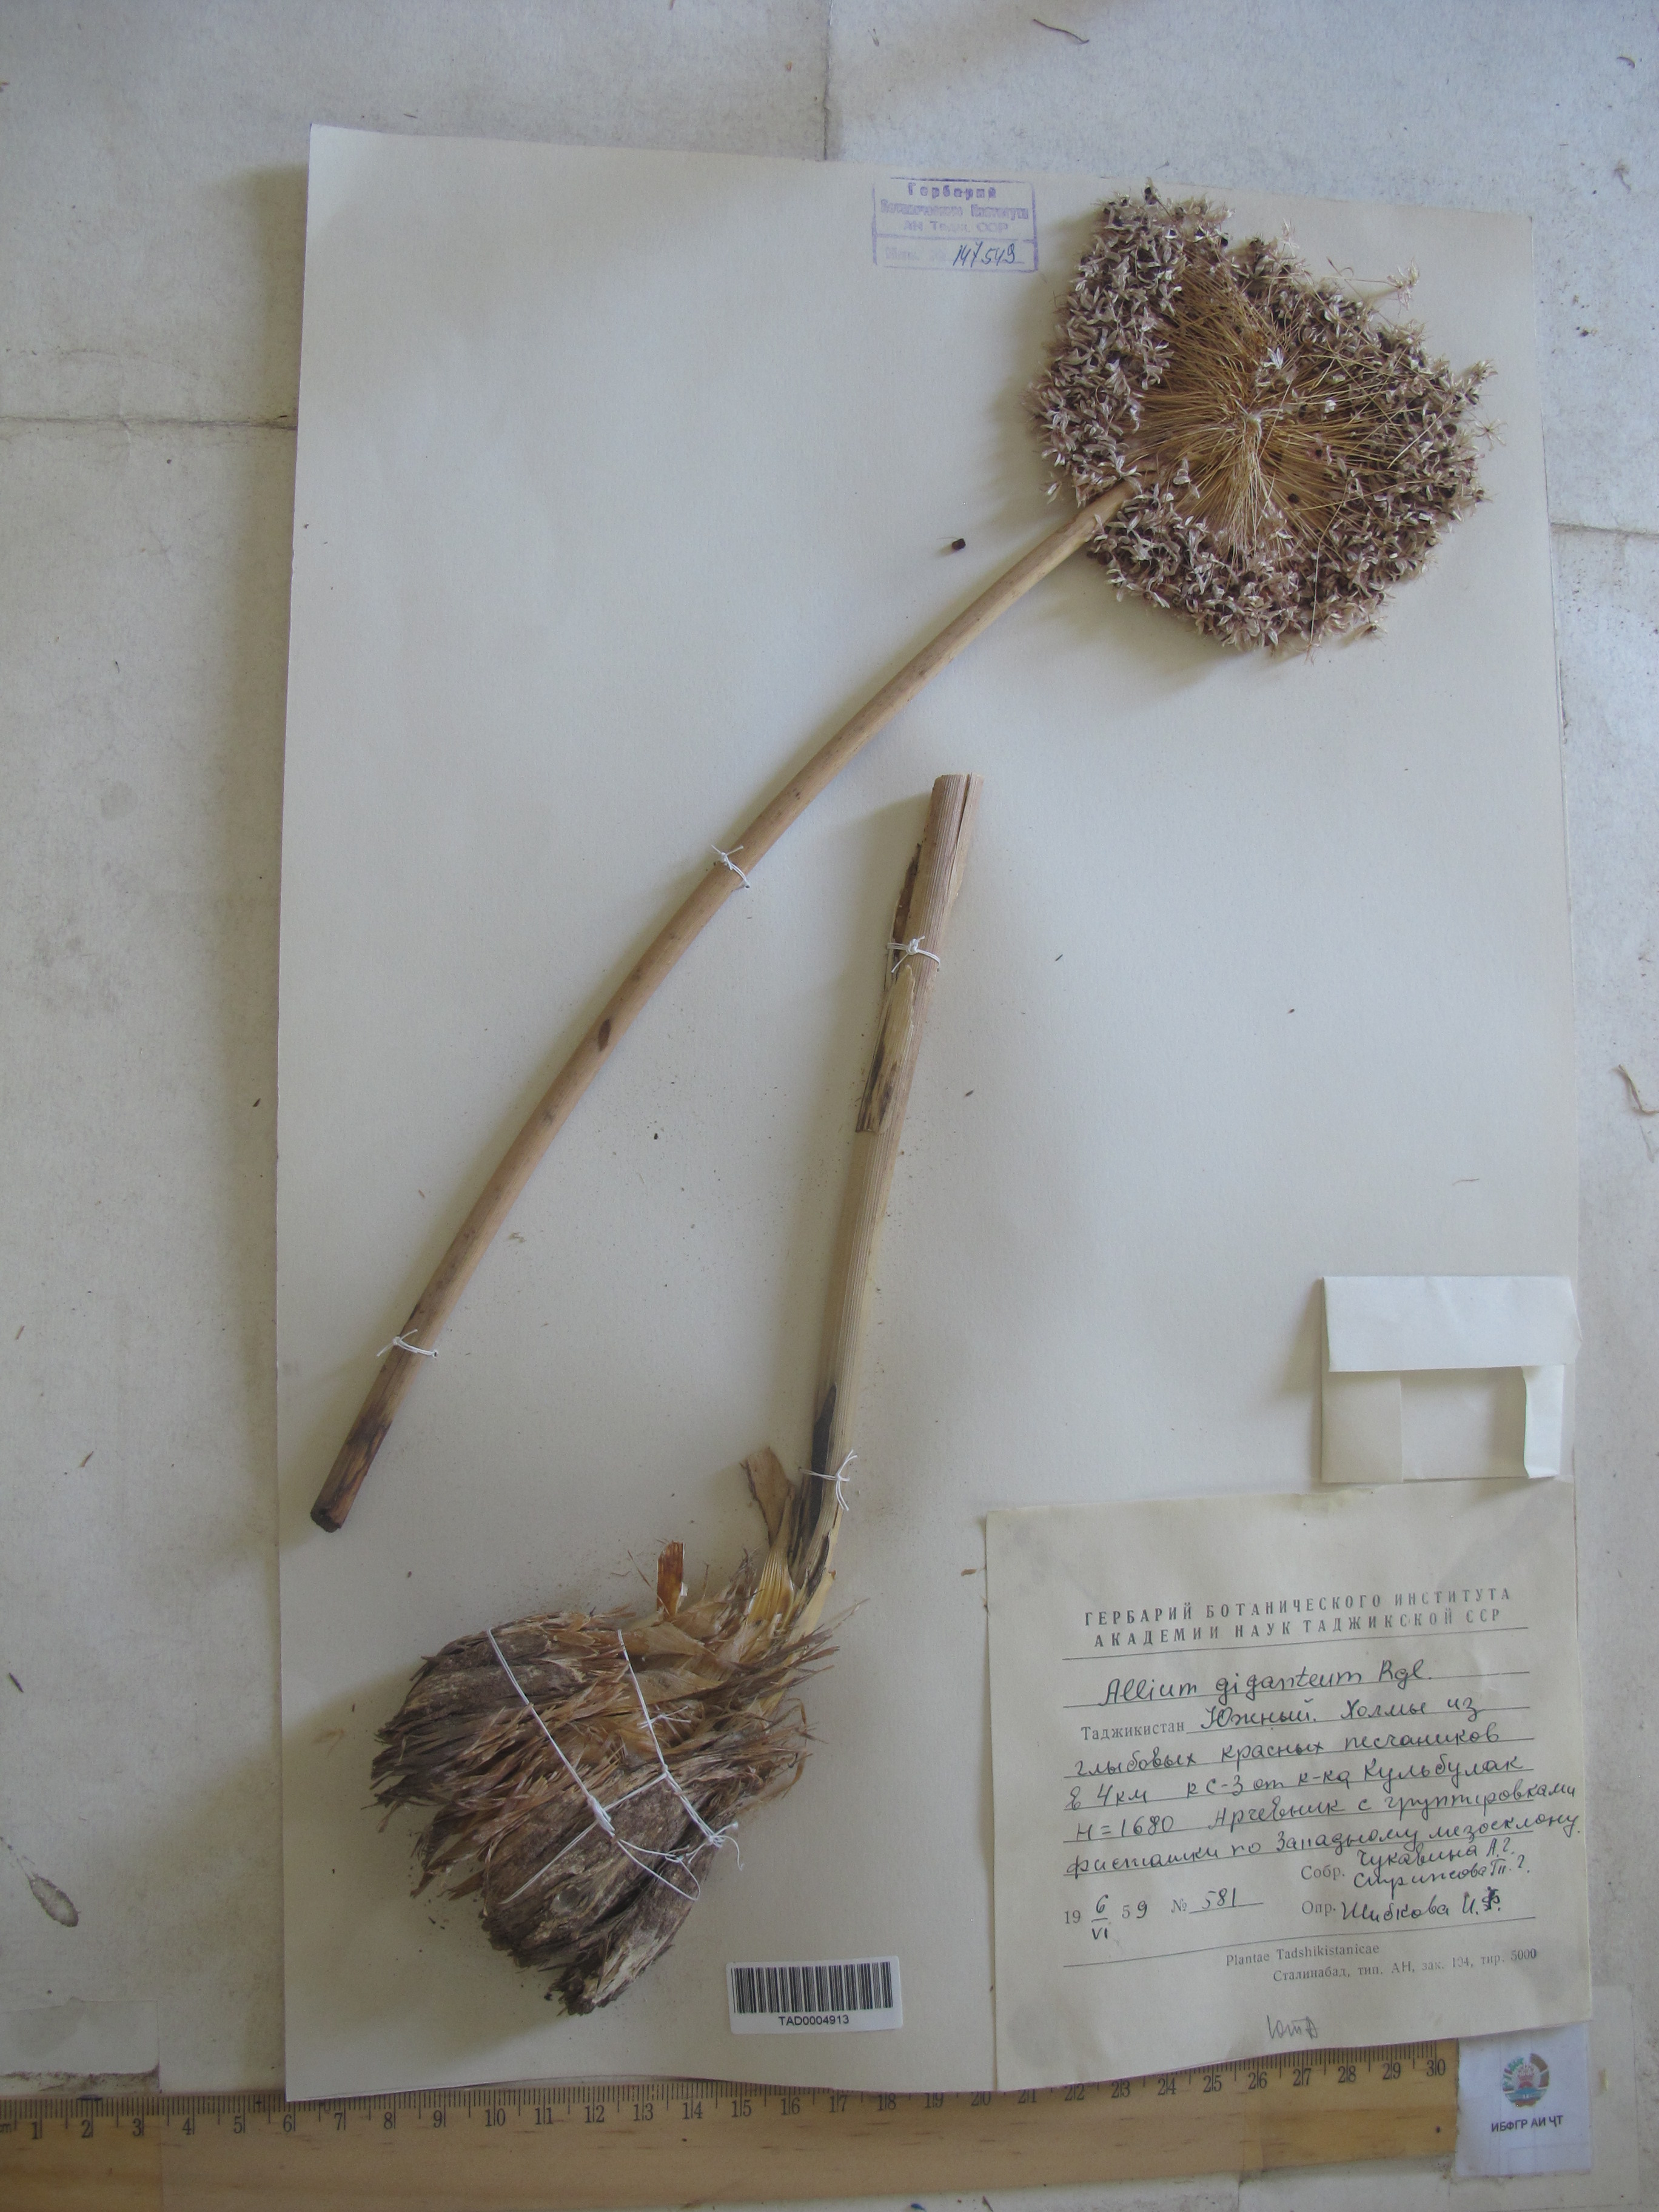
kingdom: Plantae
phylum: Tracheophyta
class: Liliopsida
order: Asparagales
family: Amaryllidaceae
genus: Allium
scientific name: Allium giganteum
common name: Giant onion
